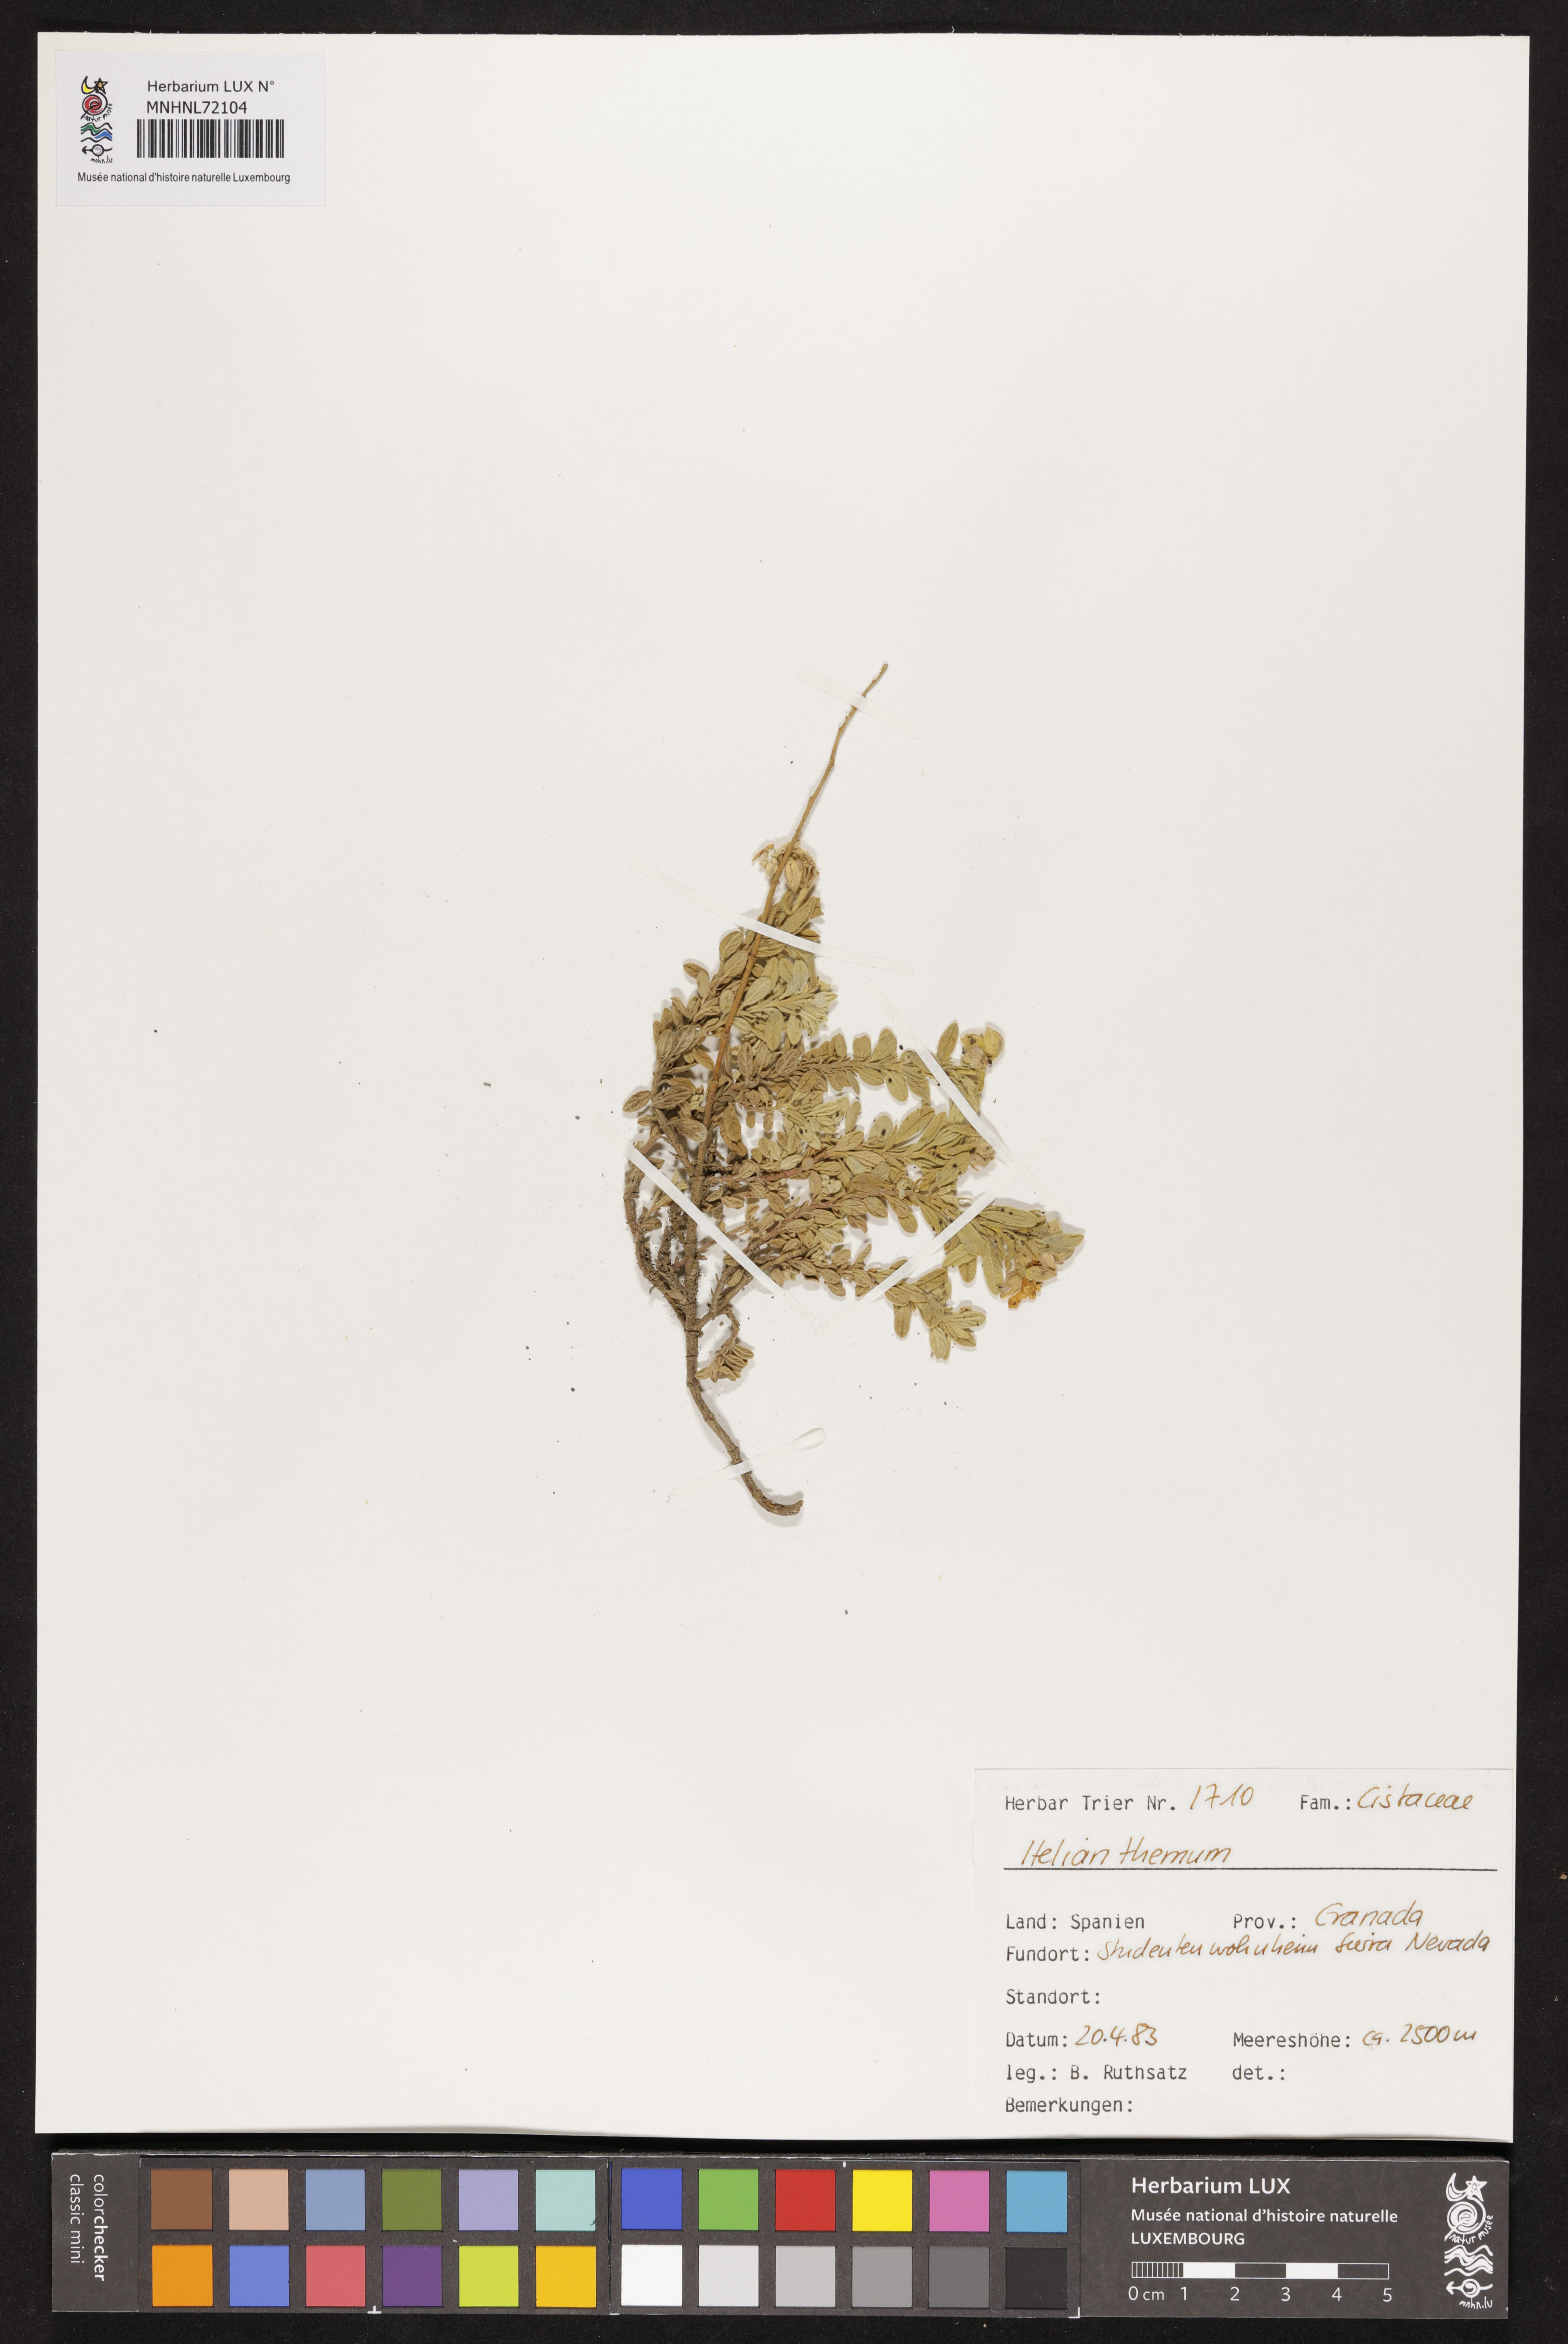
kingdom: Plantae
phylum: Tracheophyta
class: Magnoliopsida
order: Malvales
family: Cistaceae
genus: Helianthemum
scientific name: Helianthemum
